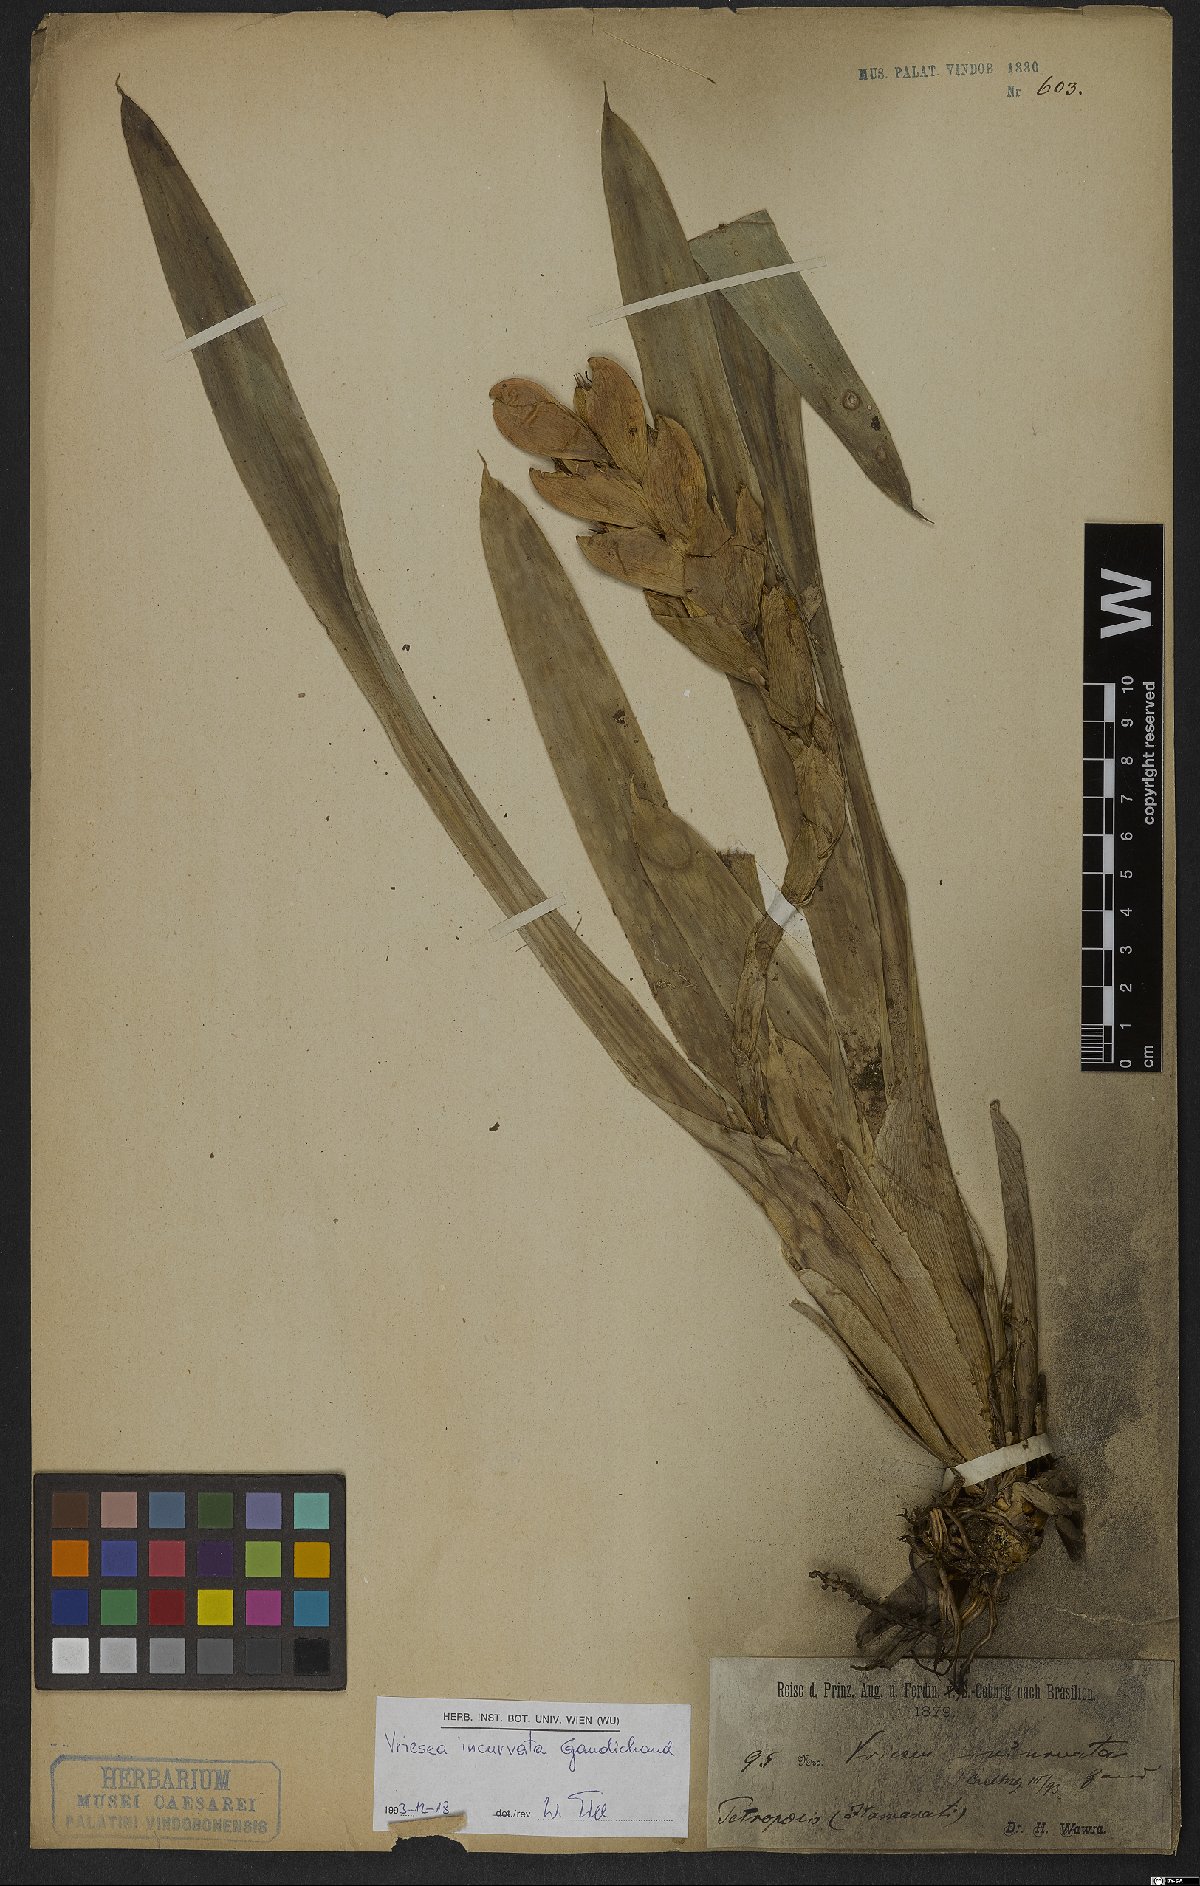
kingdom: Plantae
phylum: Tracheophyta
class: Liliopsida
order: Poales
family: Bromeliaceae
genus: Vriesea
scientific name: Vriesea incurvata
